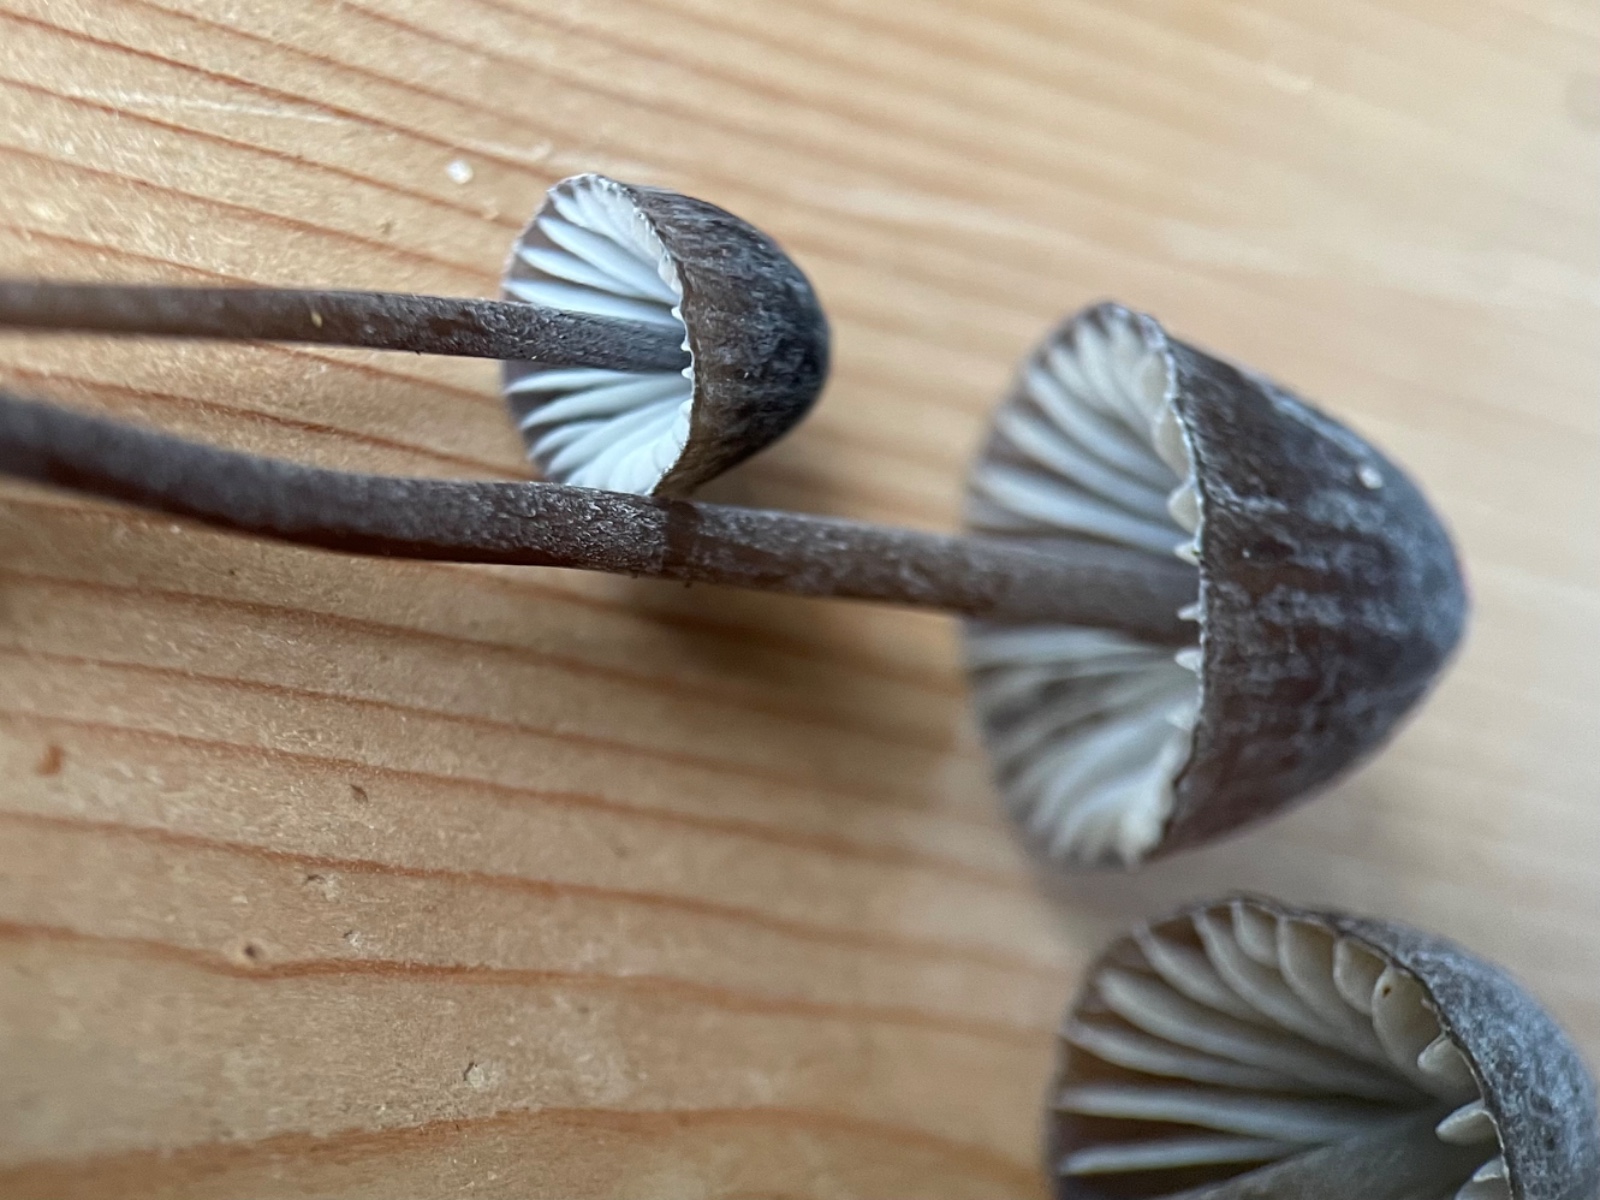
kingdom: Fungi
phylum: Basidiomycota
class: Agaricomycetes
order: Agaricales
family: Mycenaceae
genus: Mycena
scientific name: Mycena galopus
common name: hvidmælket huesvamp
